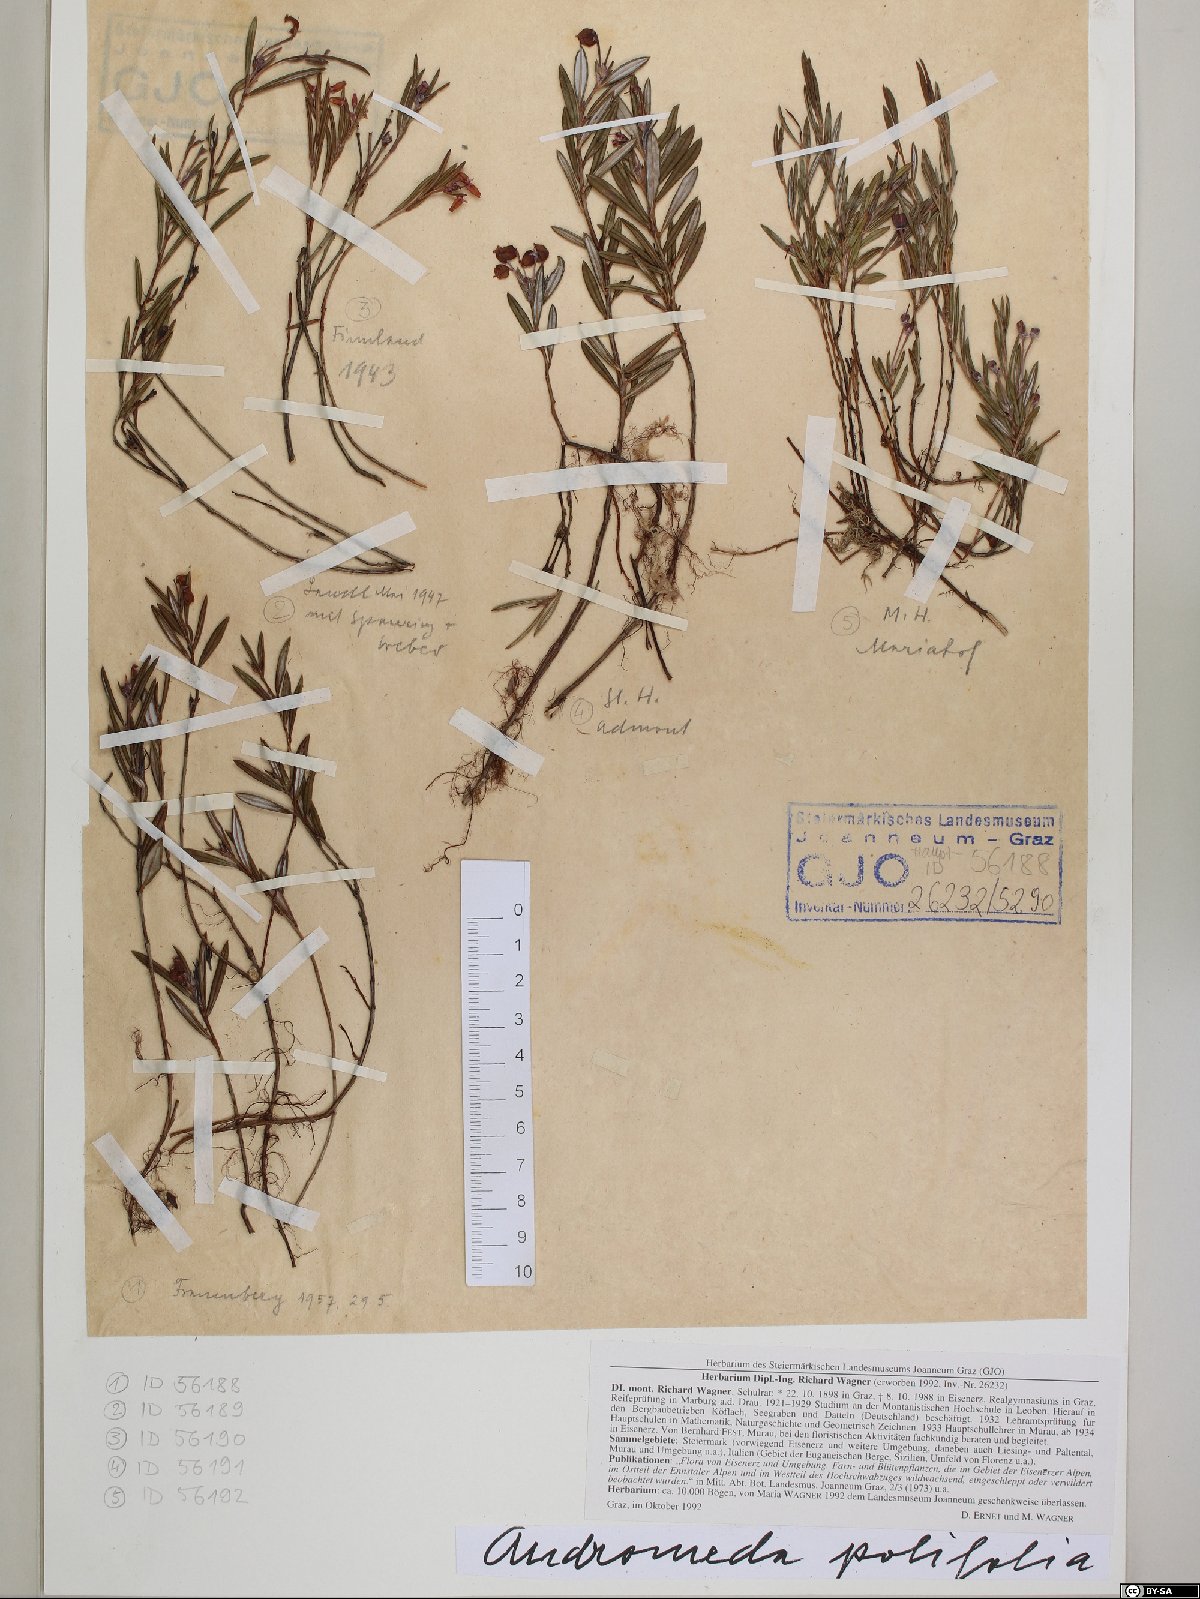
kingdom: Plantae
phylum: Tracheophyta
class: Magnoliopsida
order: Ericales
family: Ericaceae
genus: Andromeda
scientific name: Andromeda polifolia
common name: Bog-rosemary
